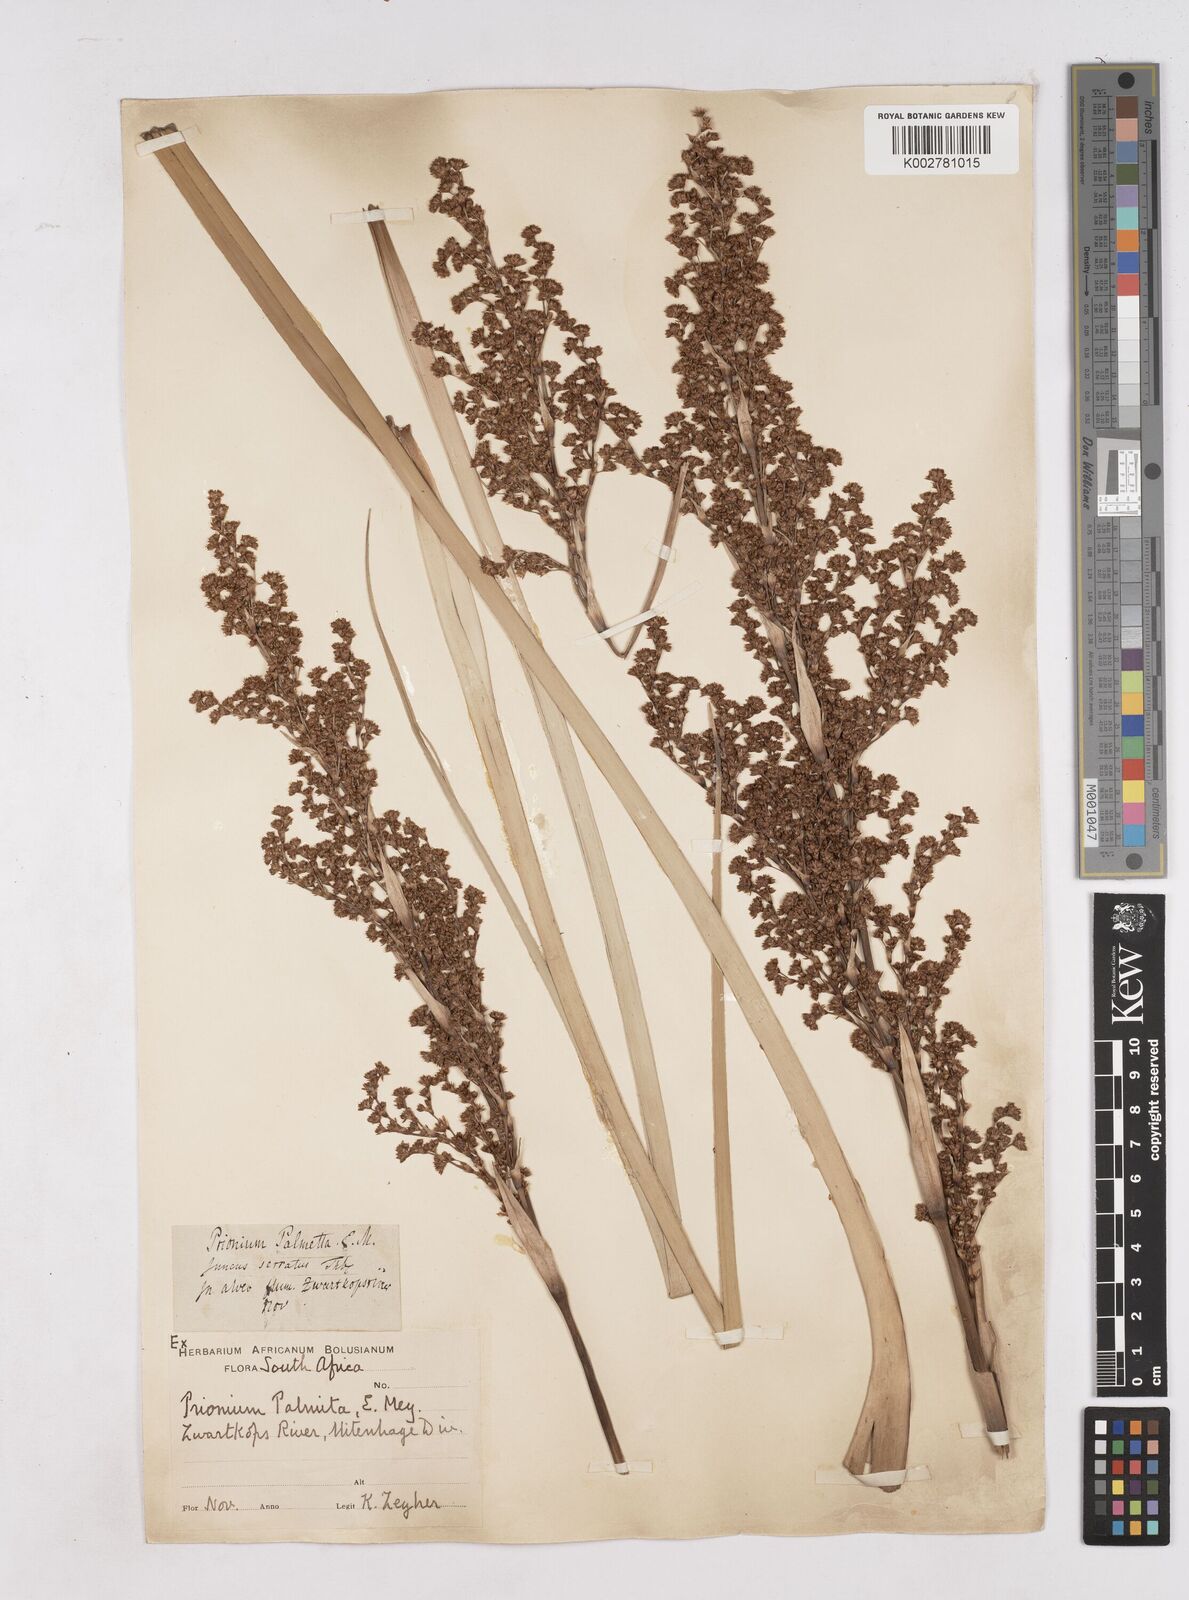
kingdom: Plantae
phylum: Tracheophyta
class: Liliopsida
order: Poales
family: Thurniaceae
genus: Prionium
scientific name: Prionium serratum
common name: Palmiet
